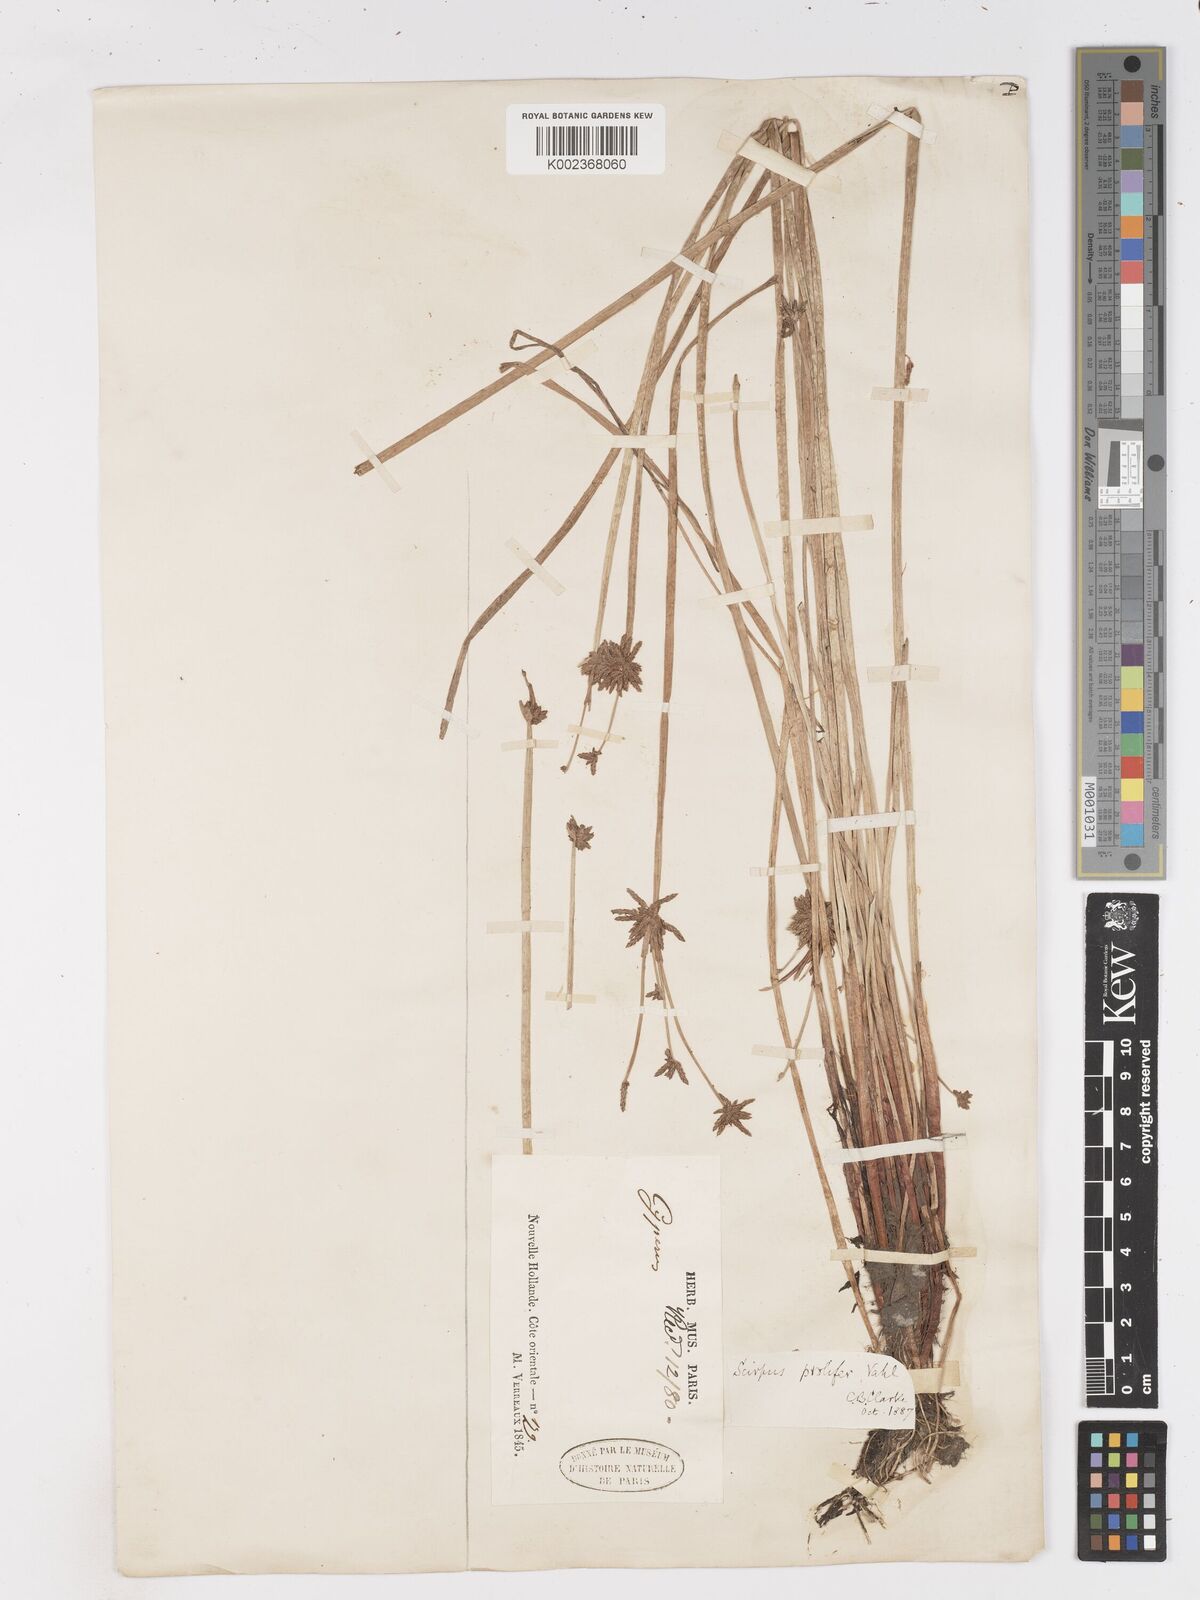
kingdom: Plantae
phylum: Tracheophyta
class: Liliopsida
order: Poales
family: Cyperaceae
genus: Isolepis
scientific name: Isolepis prolifera
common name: Proliferating bulrush
